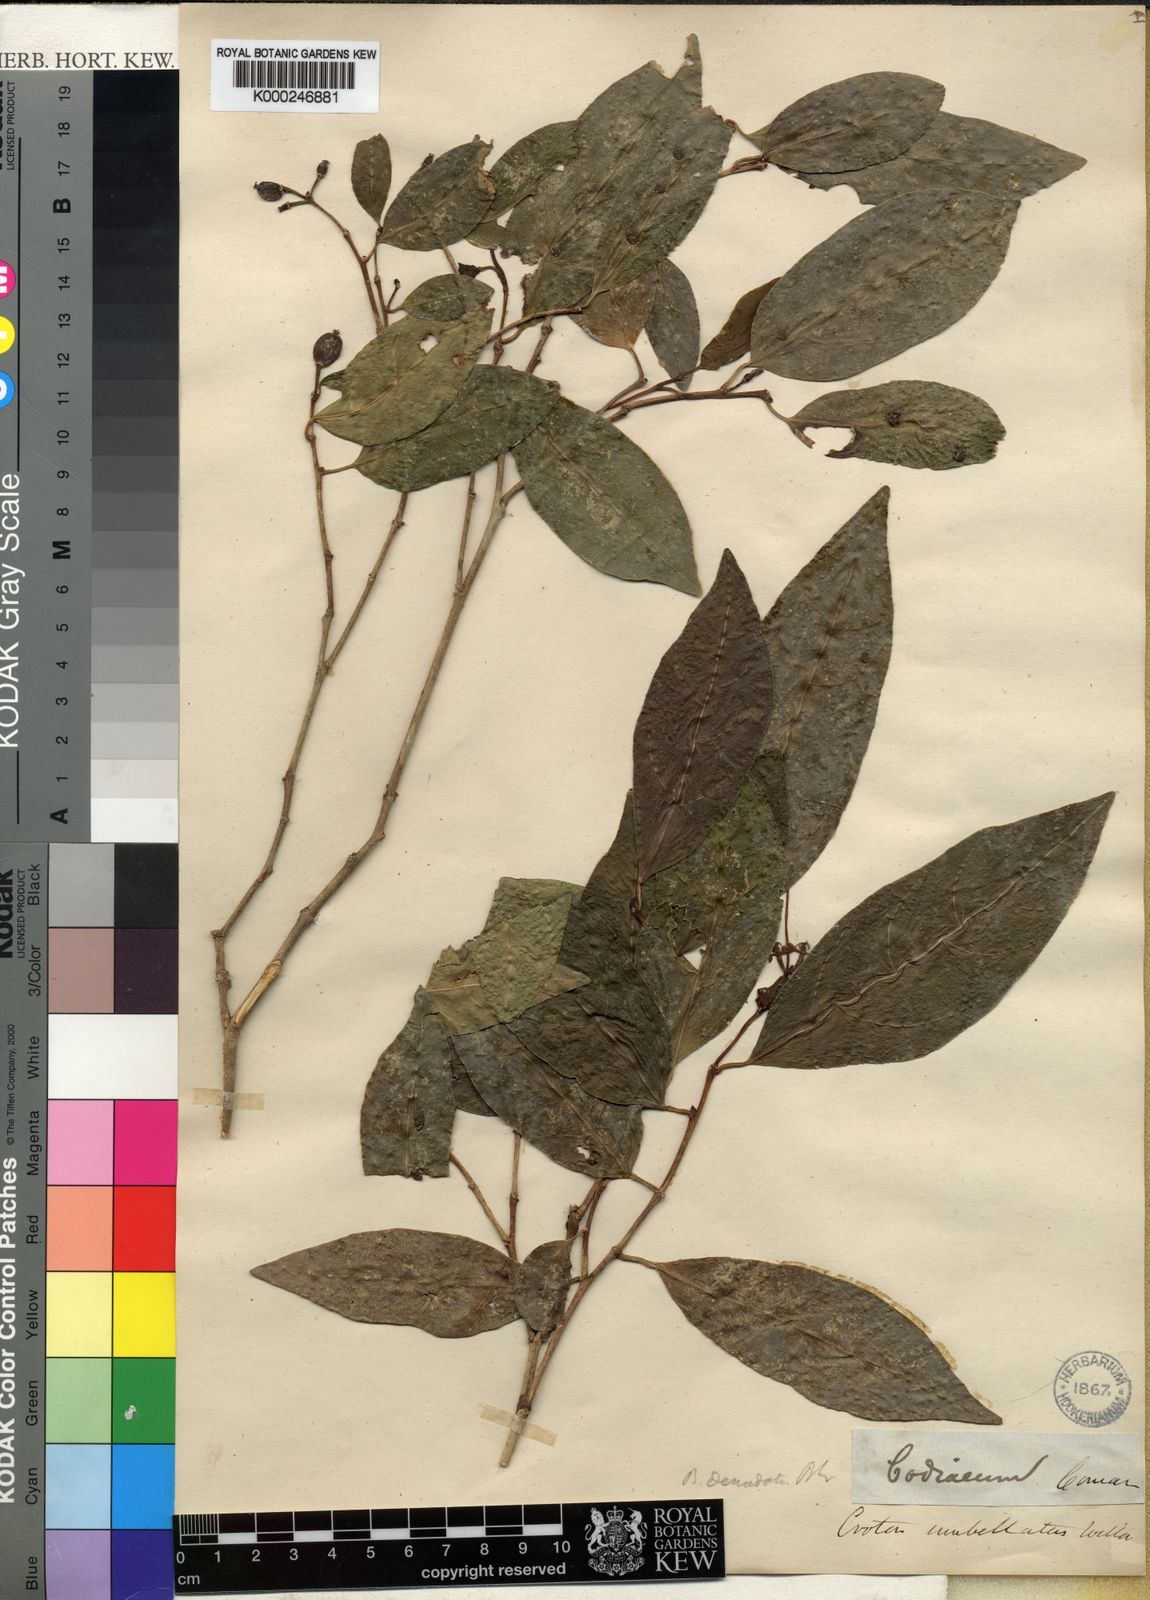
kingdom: Plantae
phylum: Tracheophyta
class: Magnoliopsida
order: Malpighiales
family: Euphorbiaceae
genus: Blachia
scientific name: Blachia denudata
